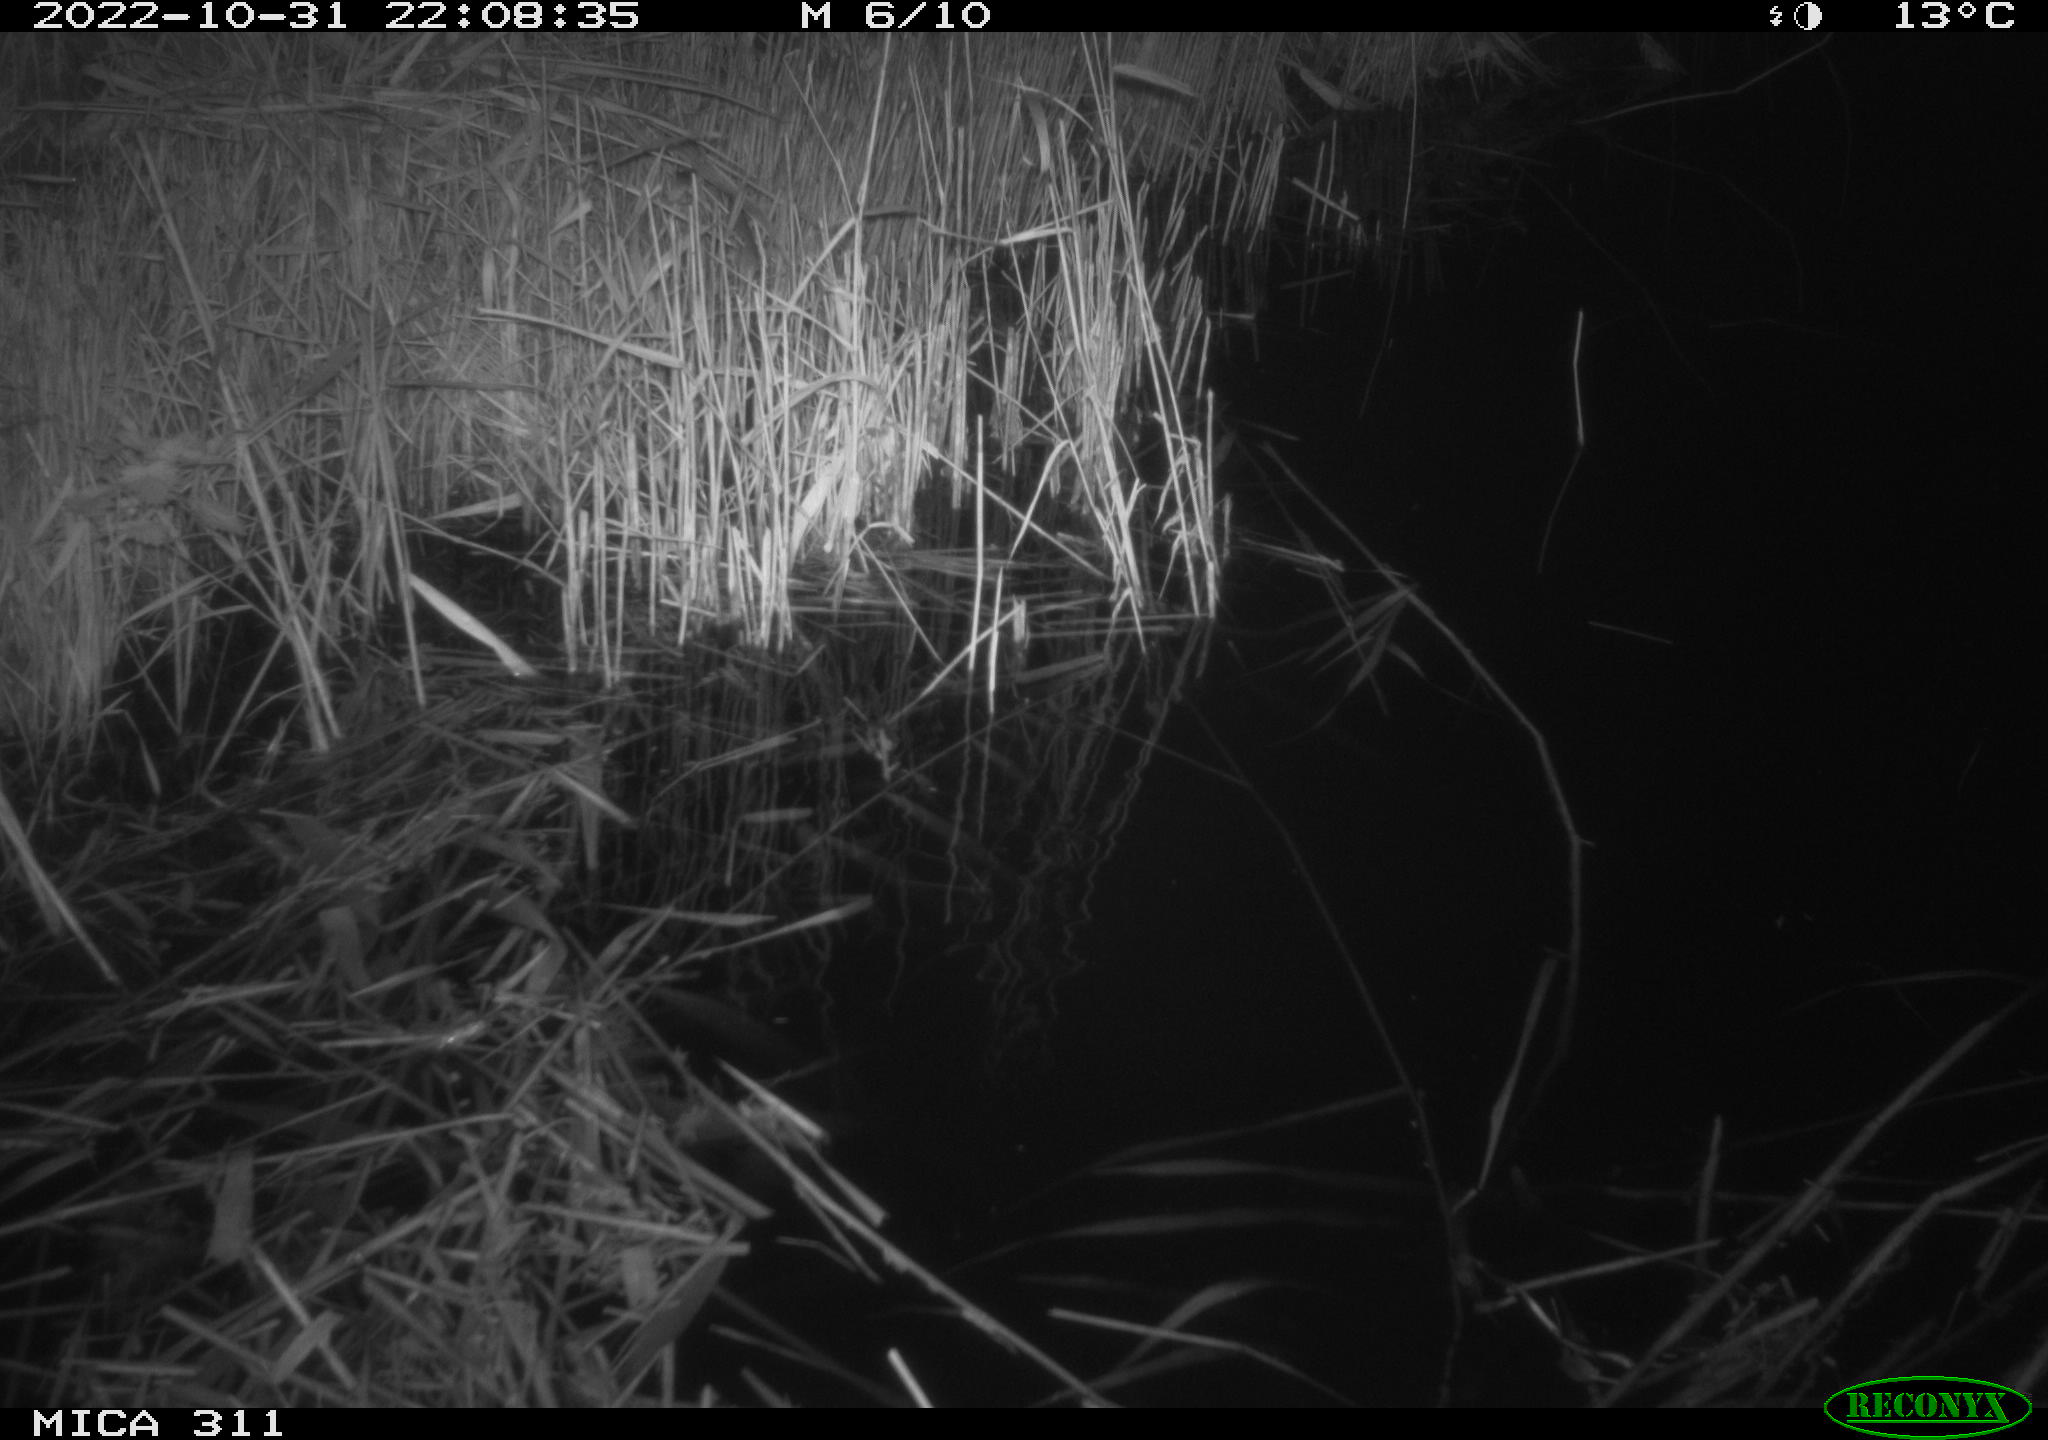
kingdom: Animalia
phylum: Chordata
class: Mammalia
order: Rodentia
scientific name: Rodentia
